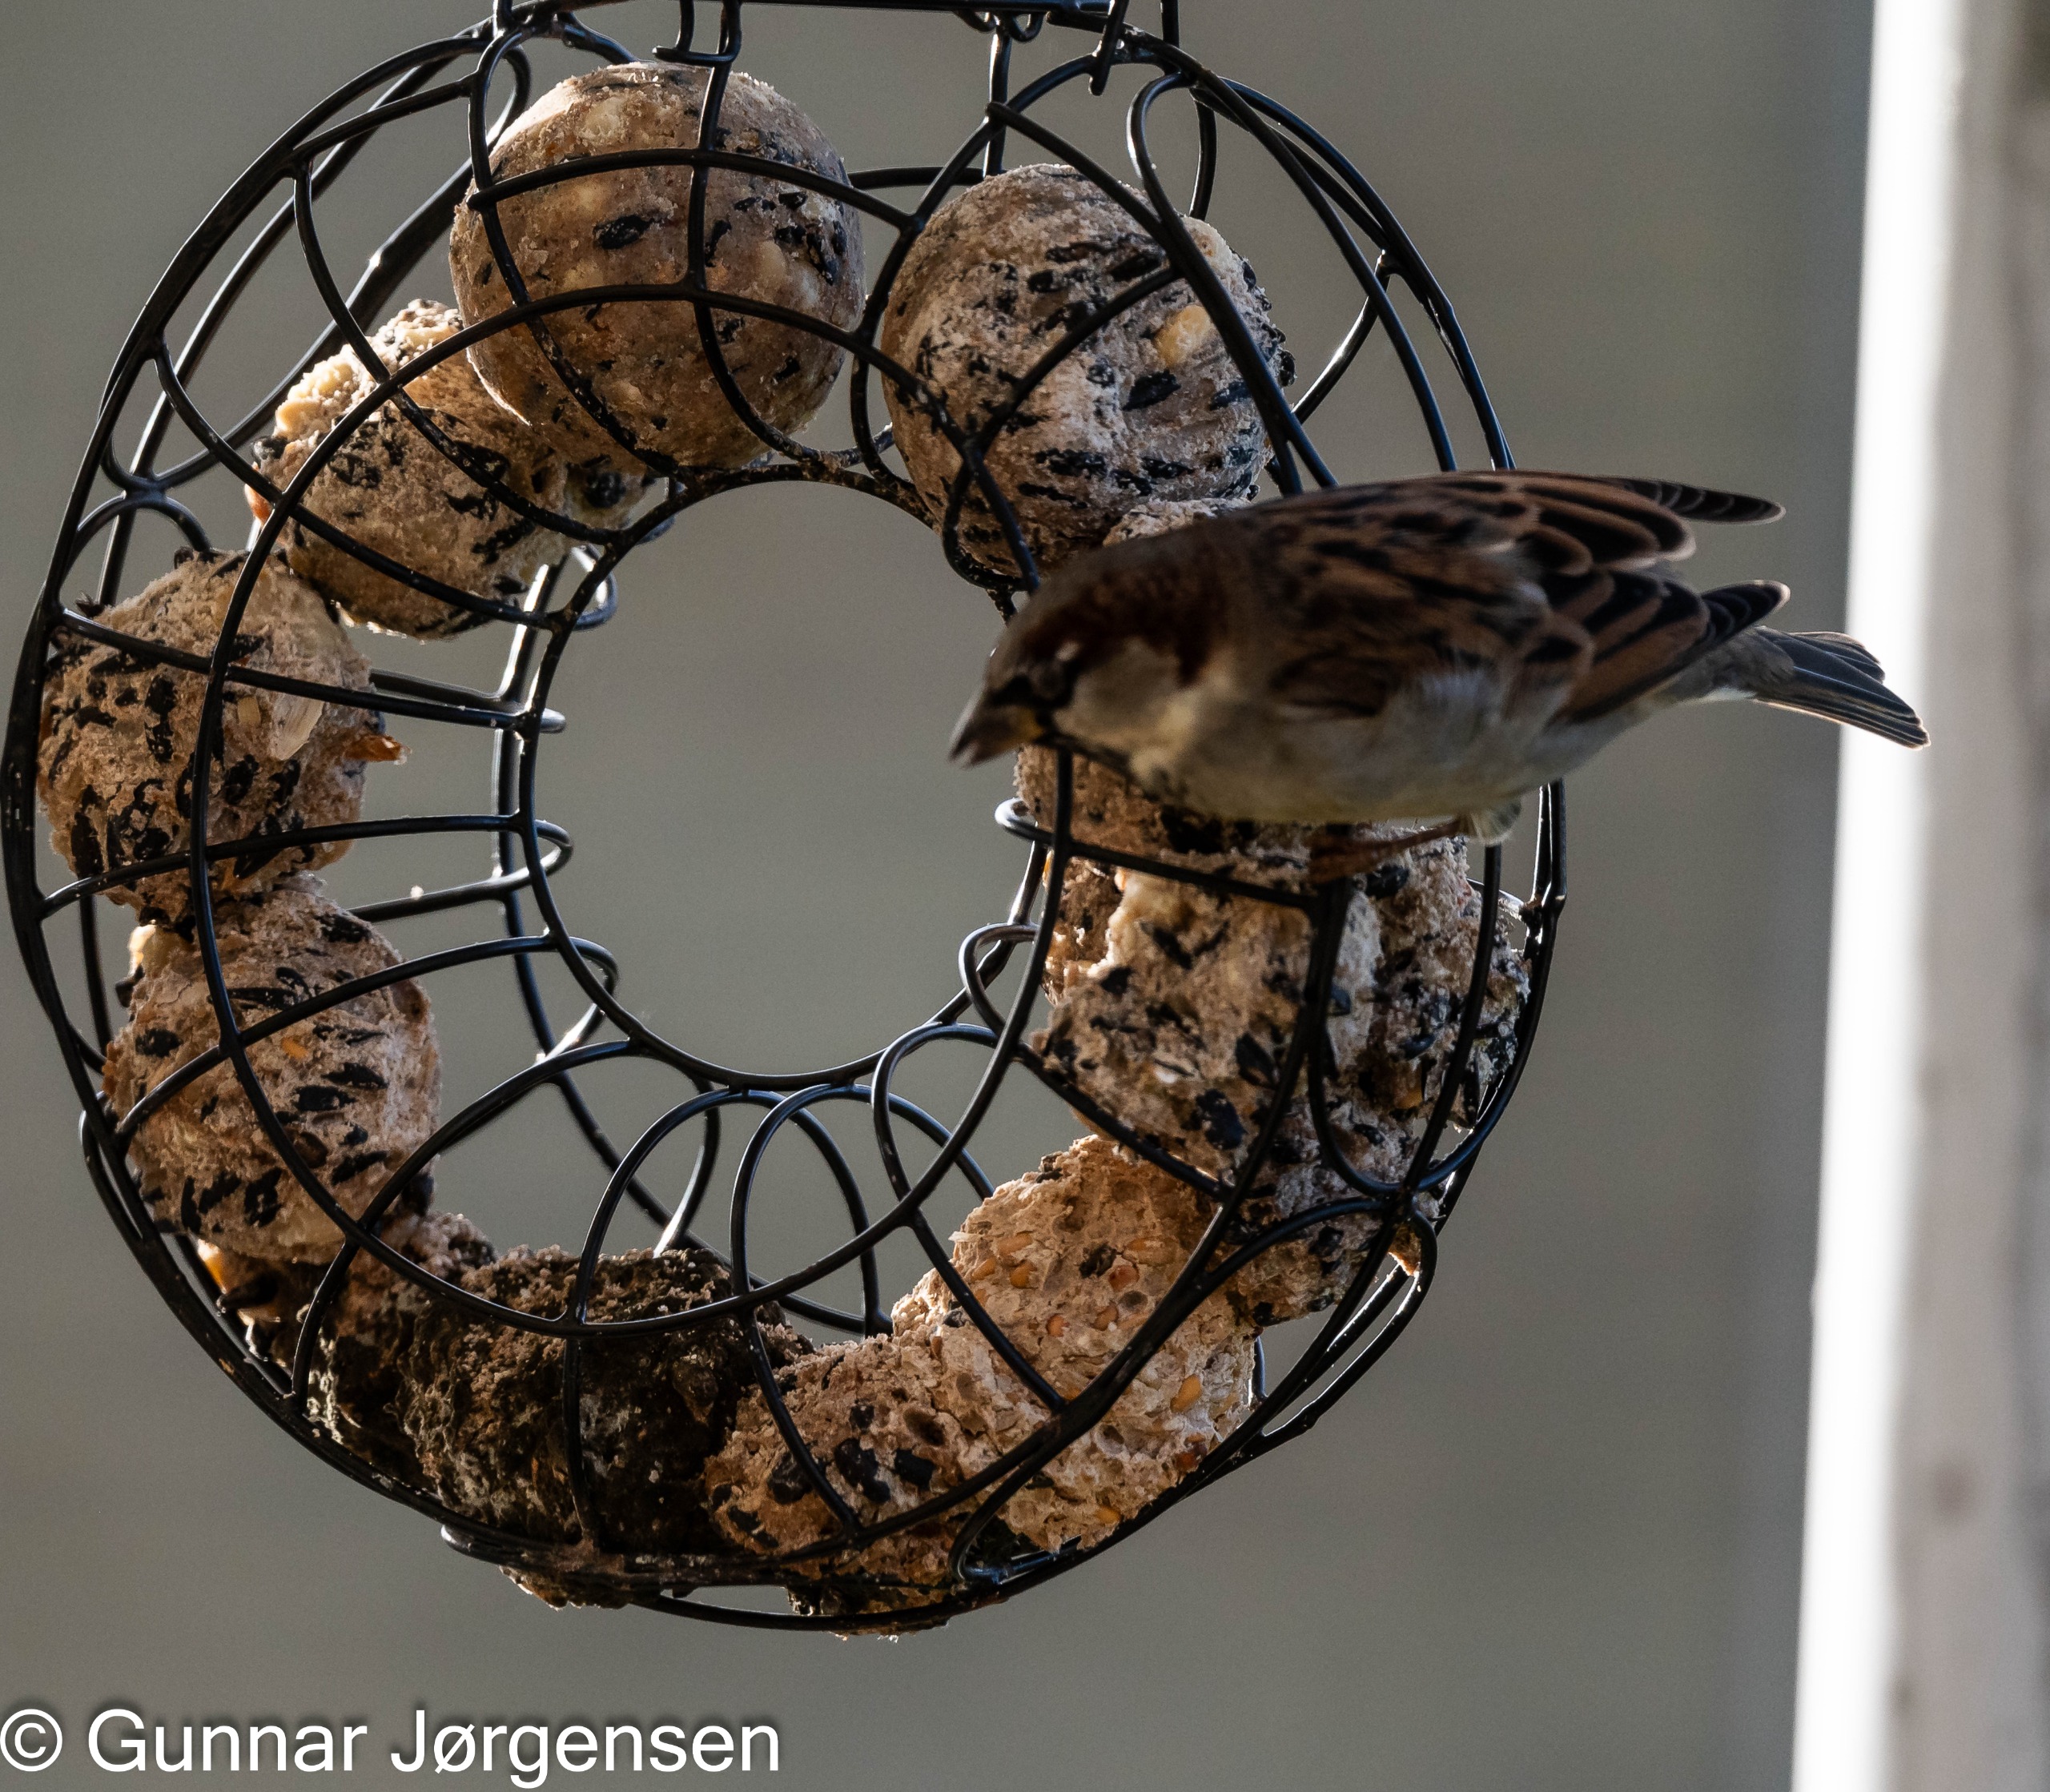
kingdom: Animalia
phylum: Chordata
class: Aves
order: Passeriformes
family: Passeridae
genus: Passer
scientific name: Passer domesticus
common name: Gråspurv
